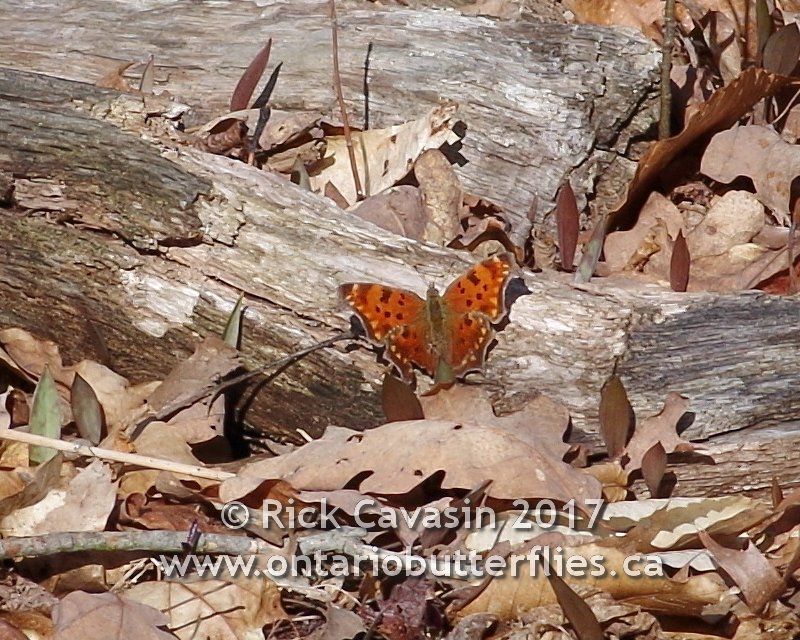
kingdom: Animalia
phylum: Arthropoda
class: Insecta
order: Lepidoptera
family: Nymphalidae
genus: Polygonia
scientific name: Polygonia comma
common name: Eastern Comma
